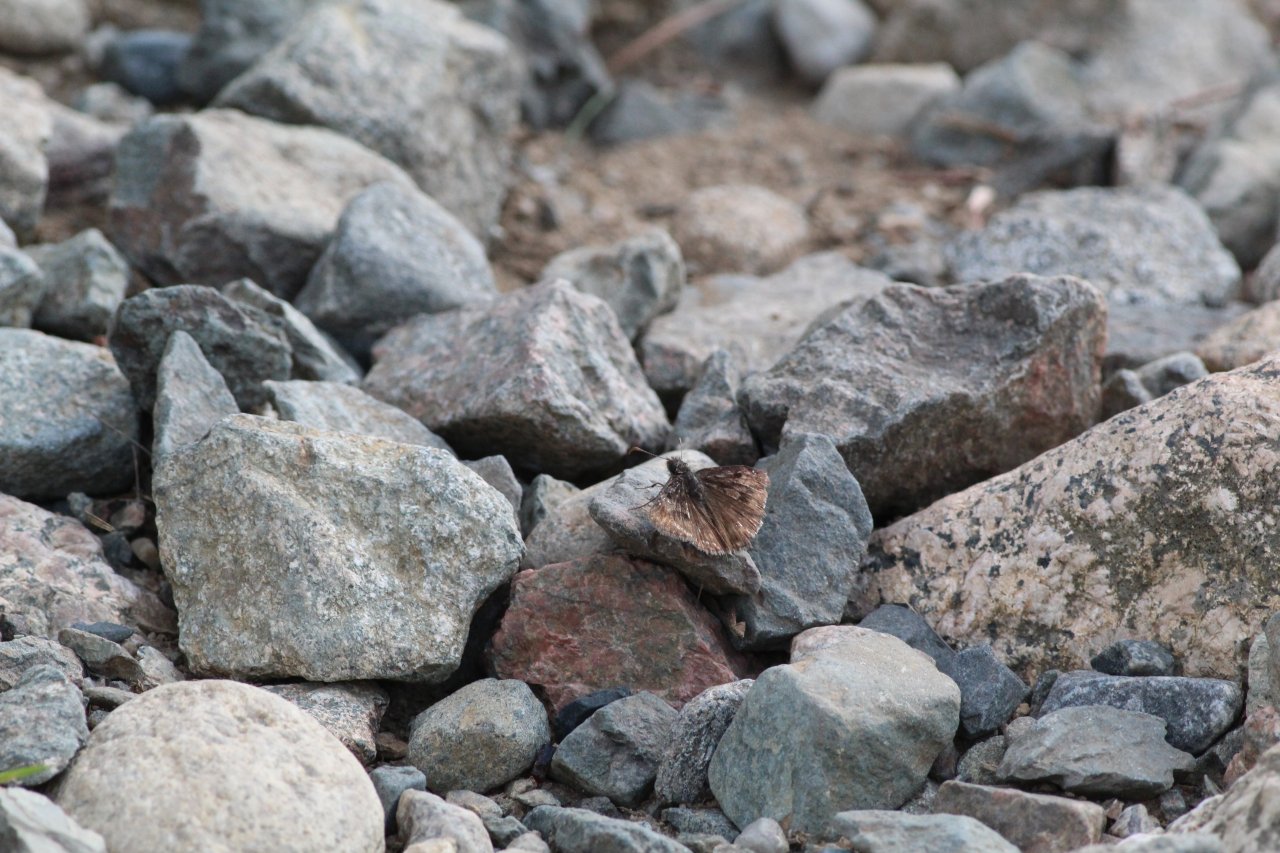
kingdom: Animalia
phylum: Arthropoda
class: Insecta
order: Lepidoptera
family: Hesperiidae
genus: Gesta
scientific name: Gesta
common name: Wild Indigo Duskywing
